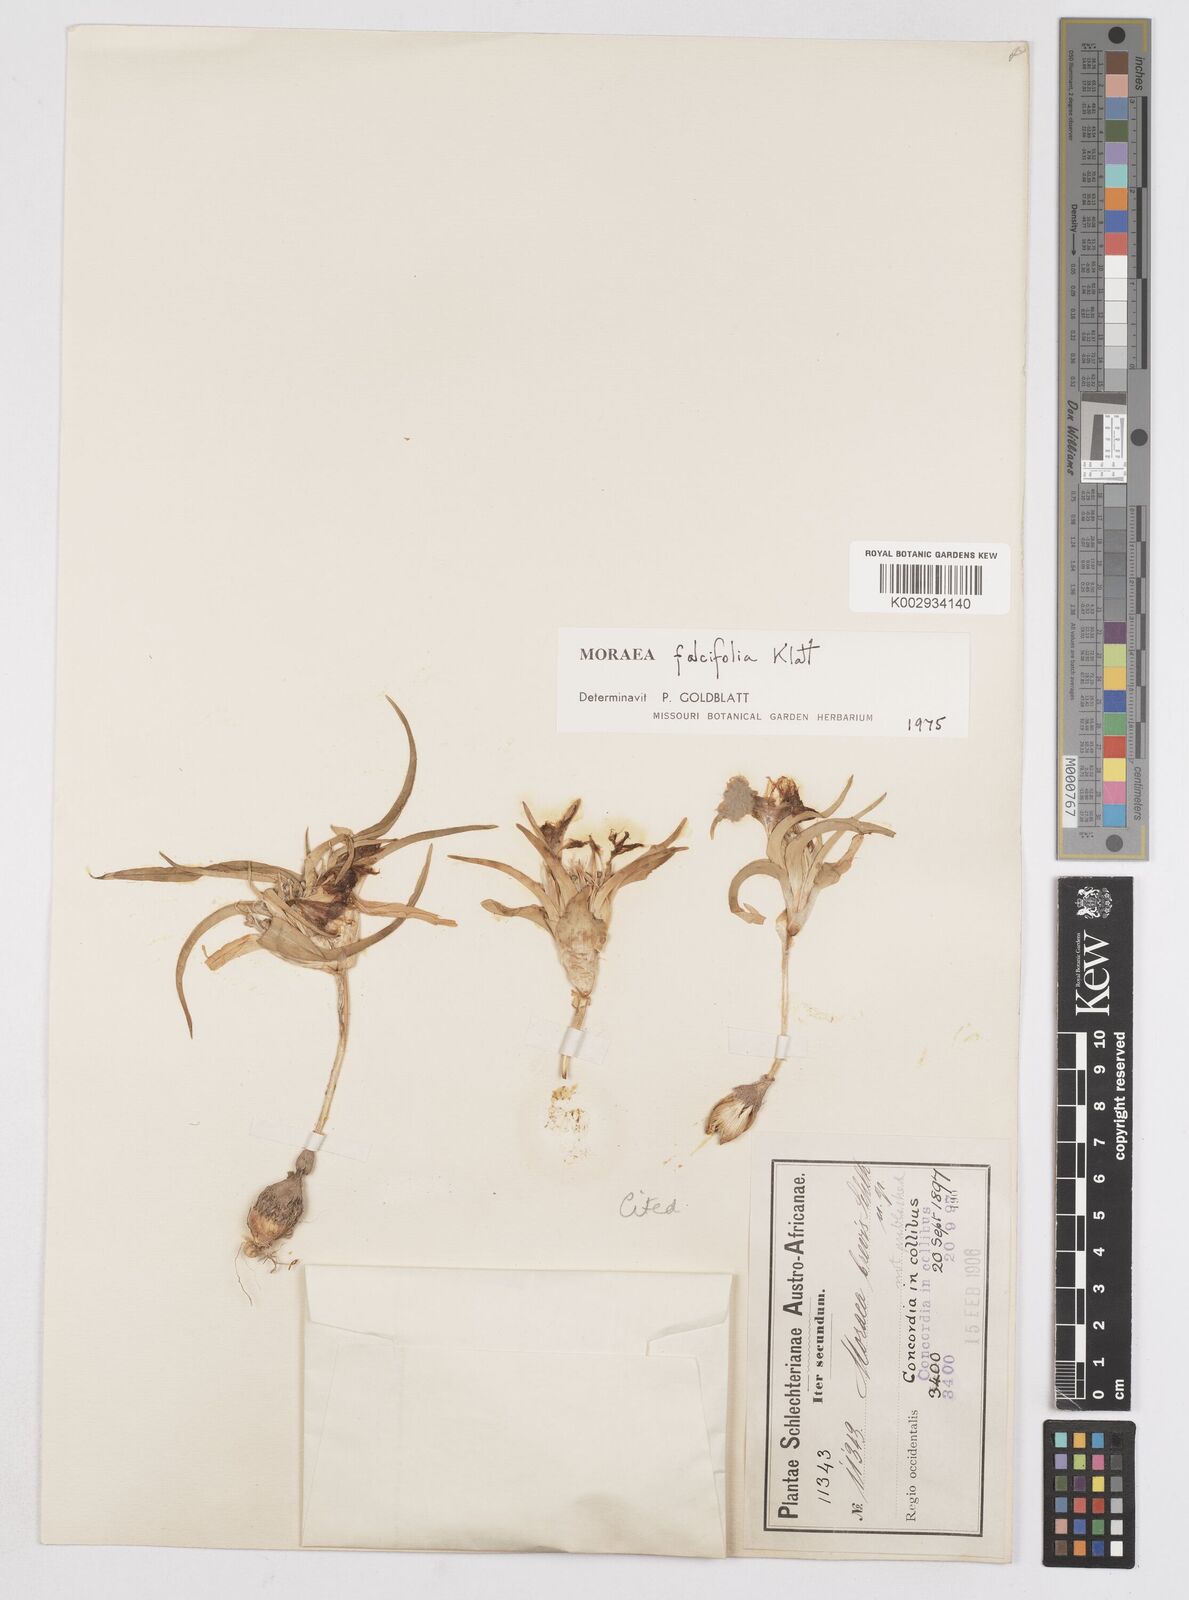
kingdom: Plantae
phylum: Tracheophyta
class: Liliopsida
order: Asparagales
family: Iridaceae
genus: Moraea
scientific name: Moraea falcifolia
